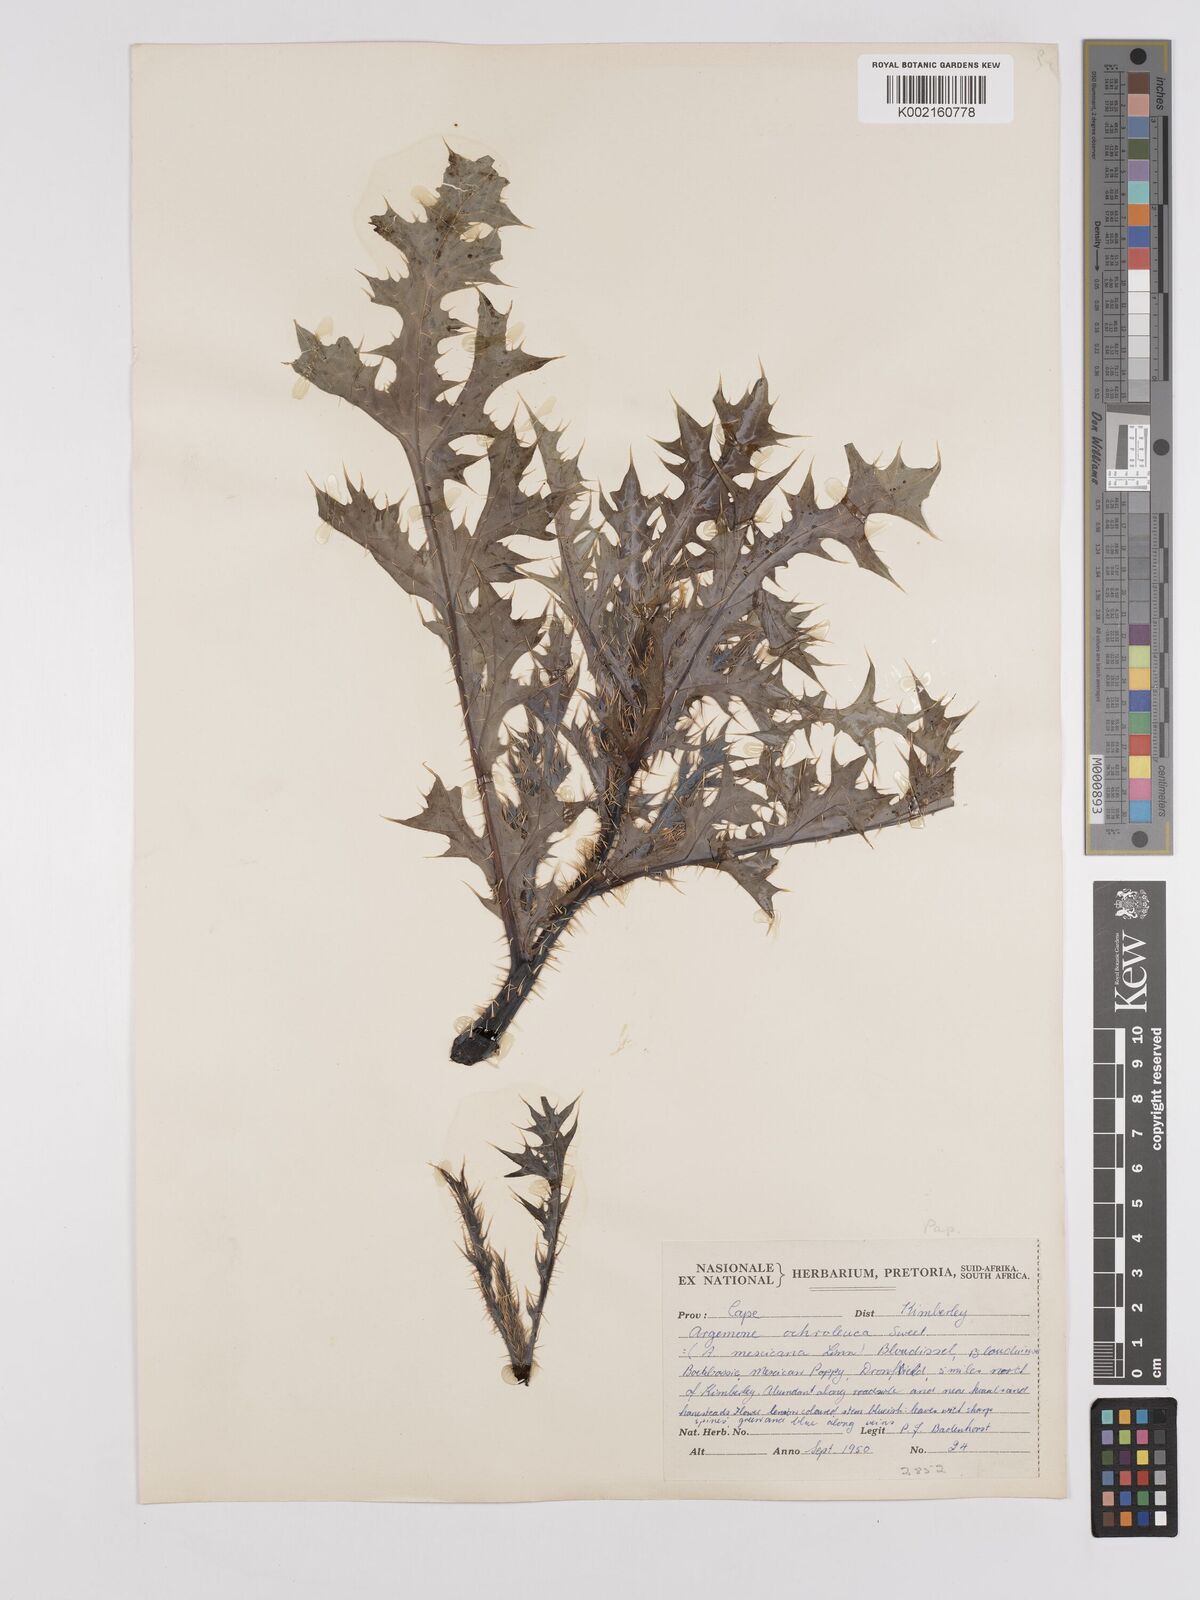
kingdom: Plantae
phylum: Tracheophyta
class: Magnoliopsida
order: Ranunculales
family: Papaveraceae
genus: Argemone
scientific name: Argemone mexicana
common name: Mexican poppy
